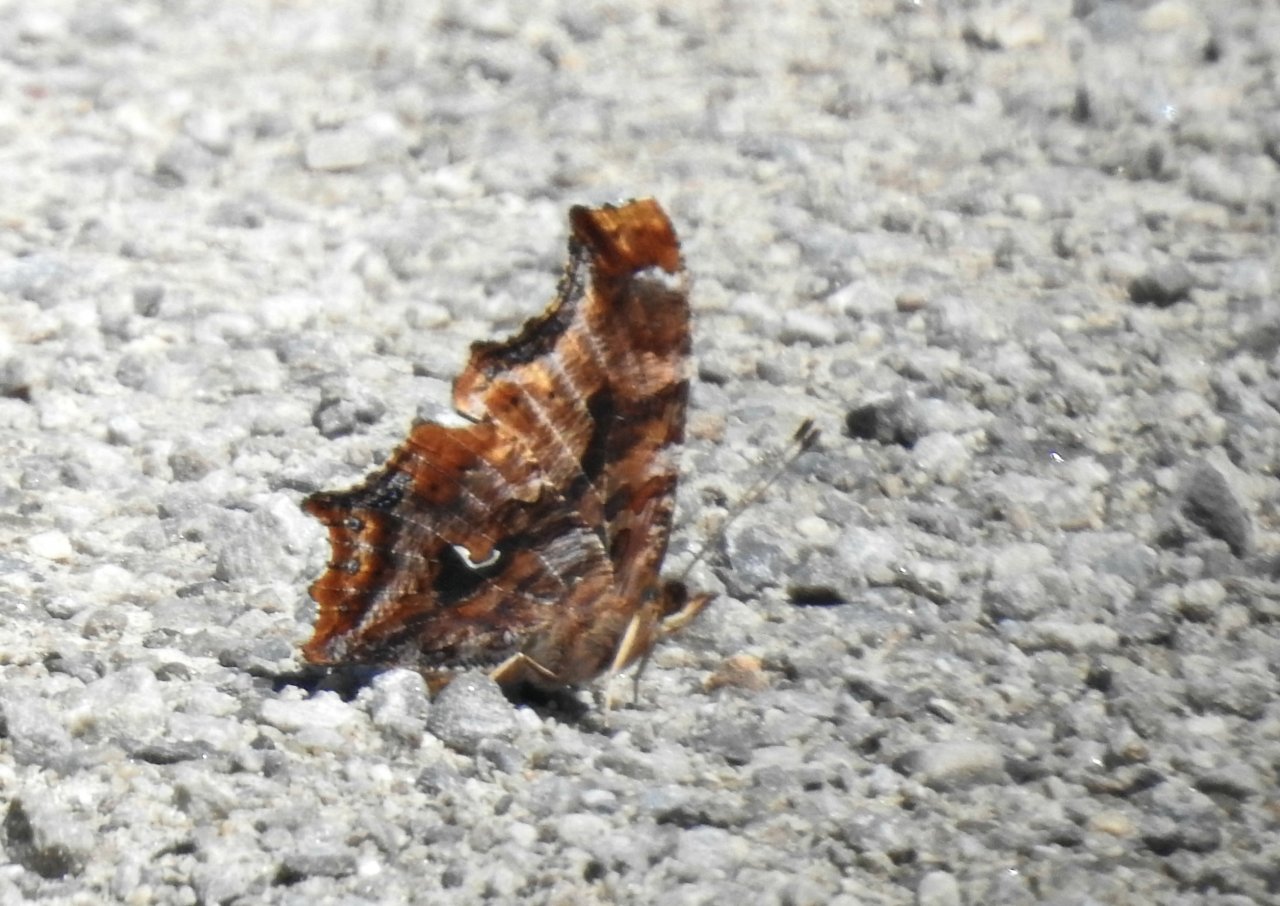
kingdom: Animalia
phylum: Arthropoda
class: Insecta
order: Lepidoptera
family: Nymphalidae
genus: Polygonia
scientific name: Polygonia comma
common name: Eastern Comma
